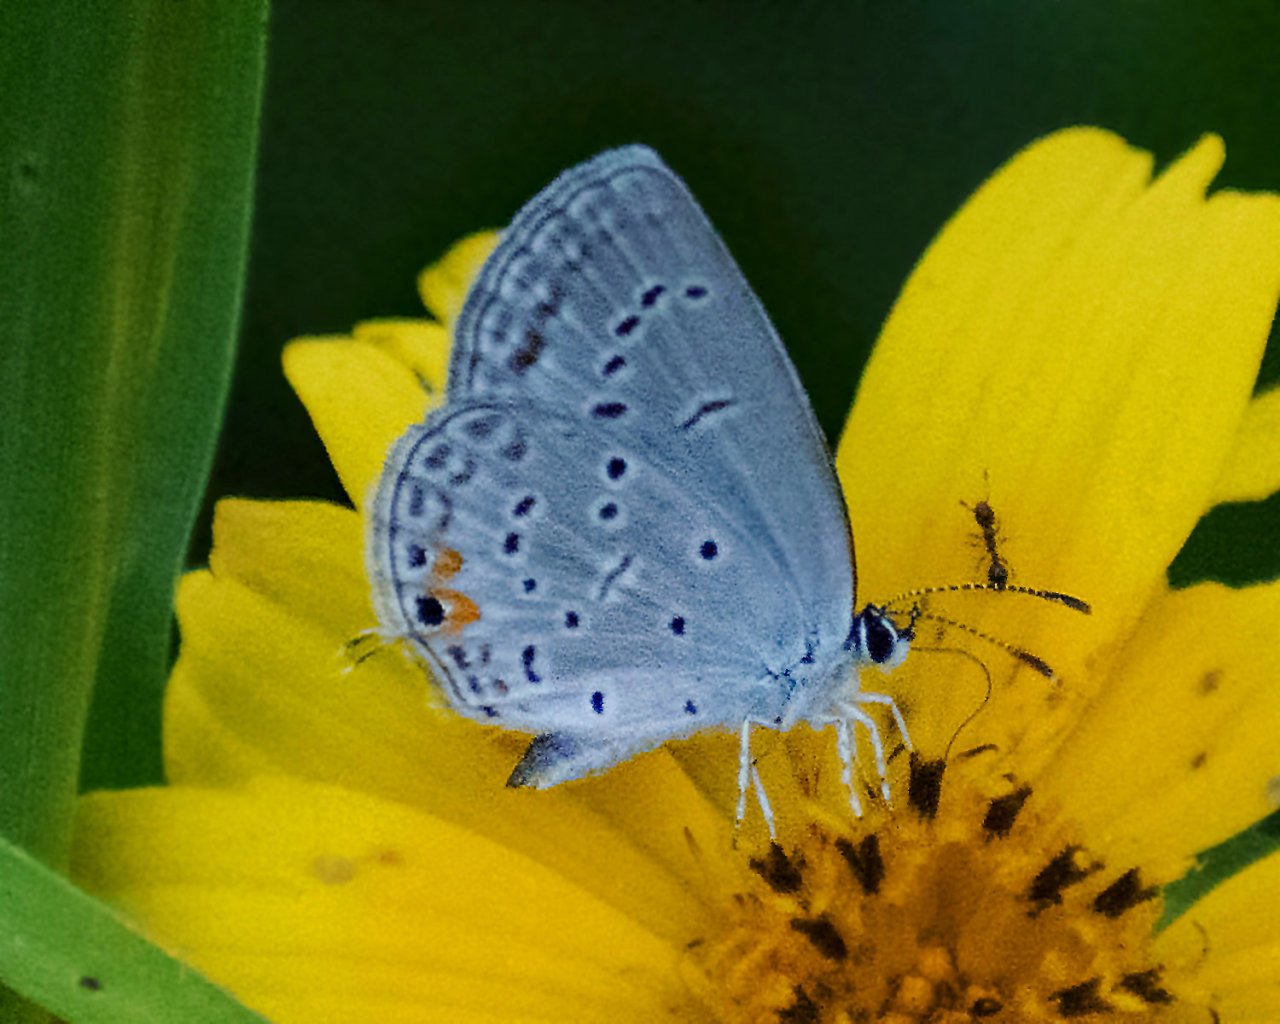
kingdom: Animalia
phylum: Arthropoda
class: Insecta
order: Lepidoptera
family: Lycaenidae
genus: Elkalyce
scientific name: Elkalyce texana
